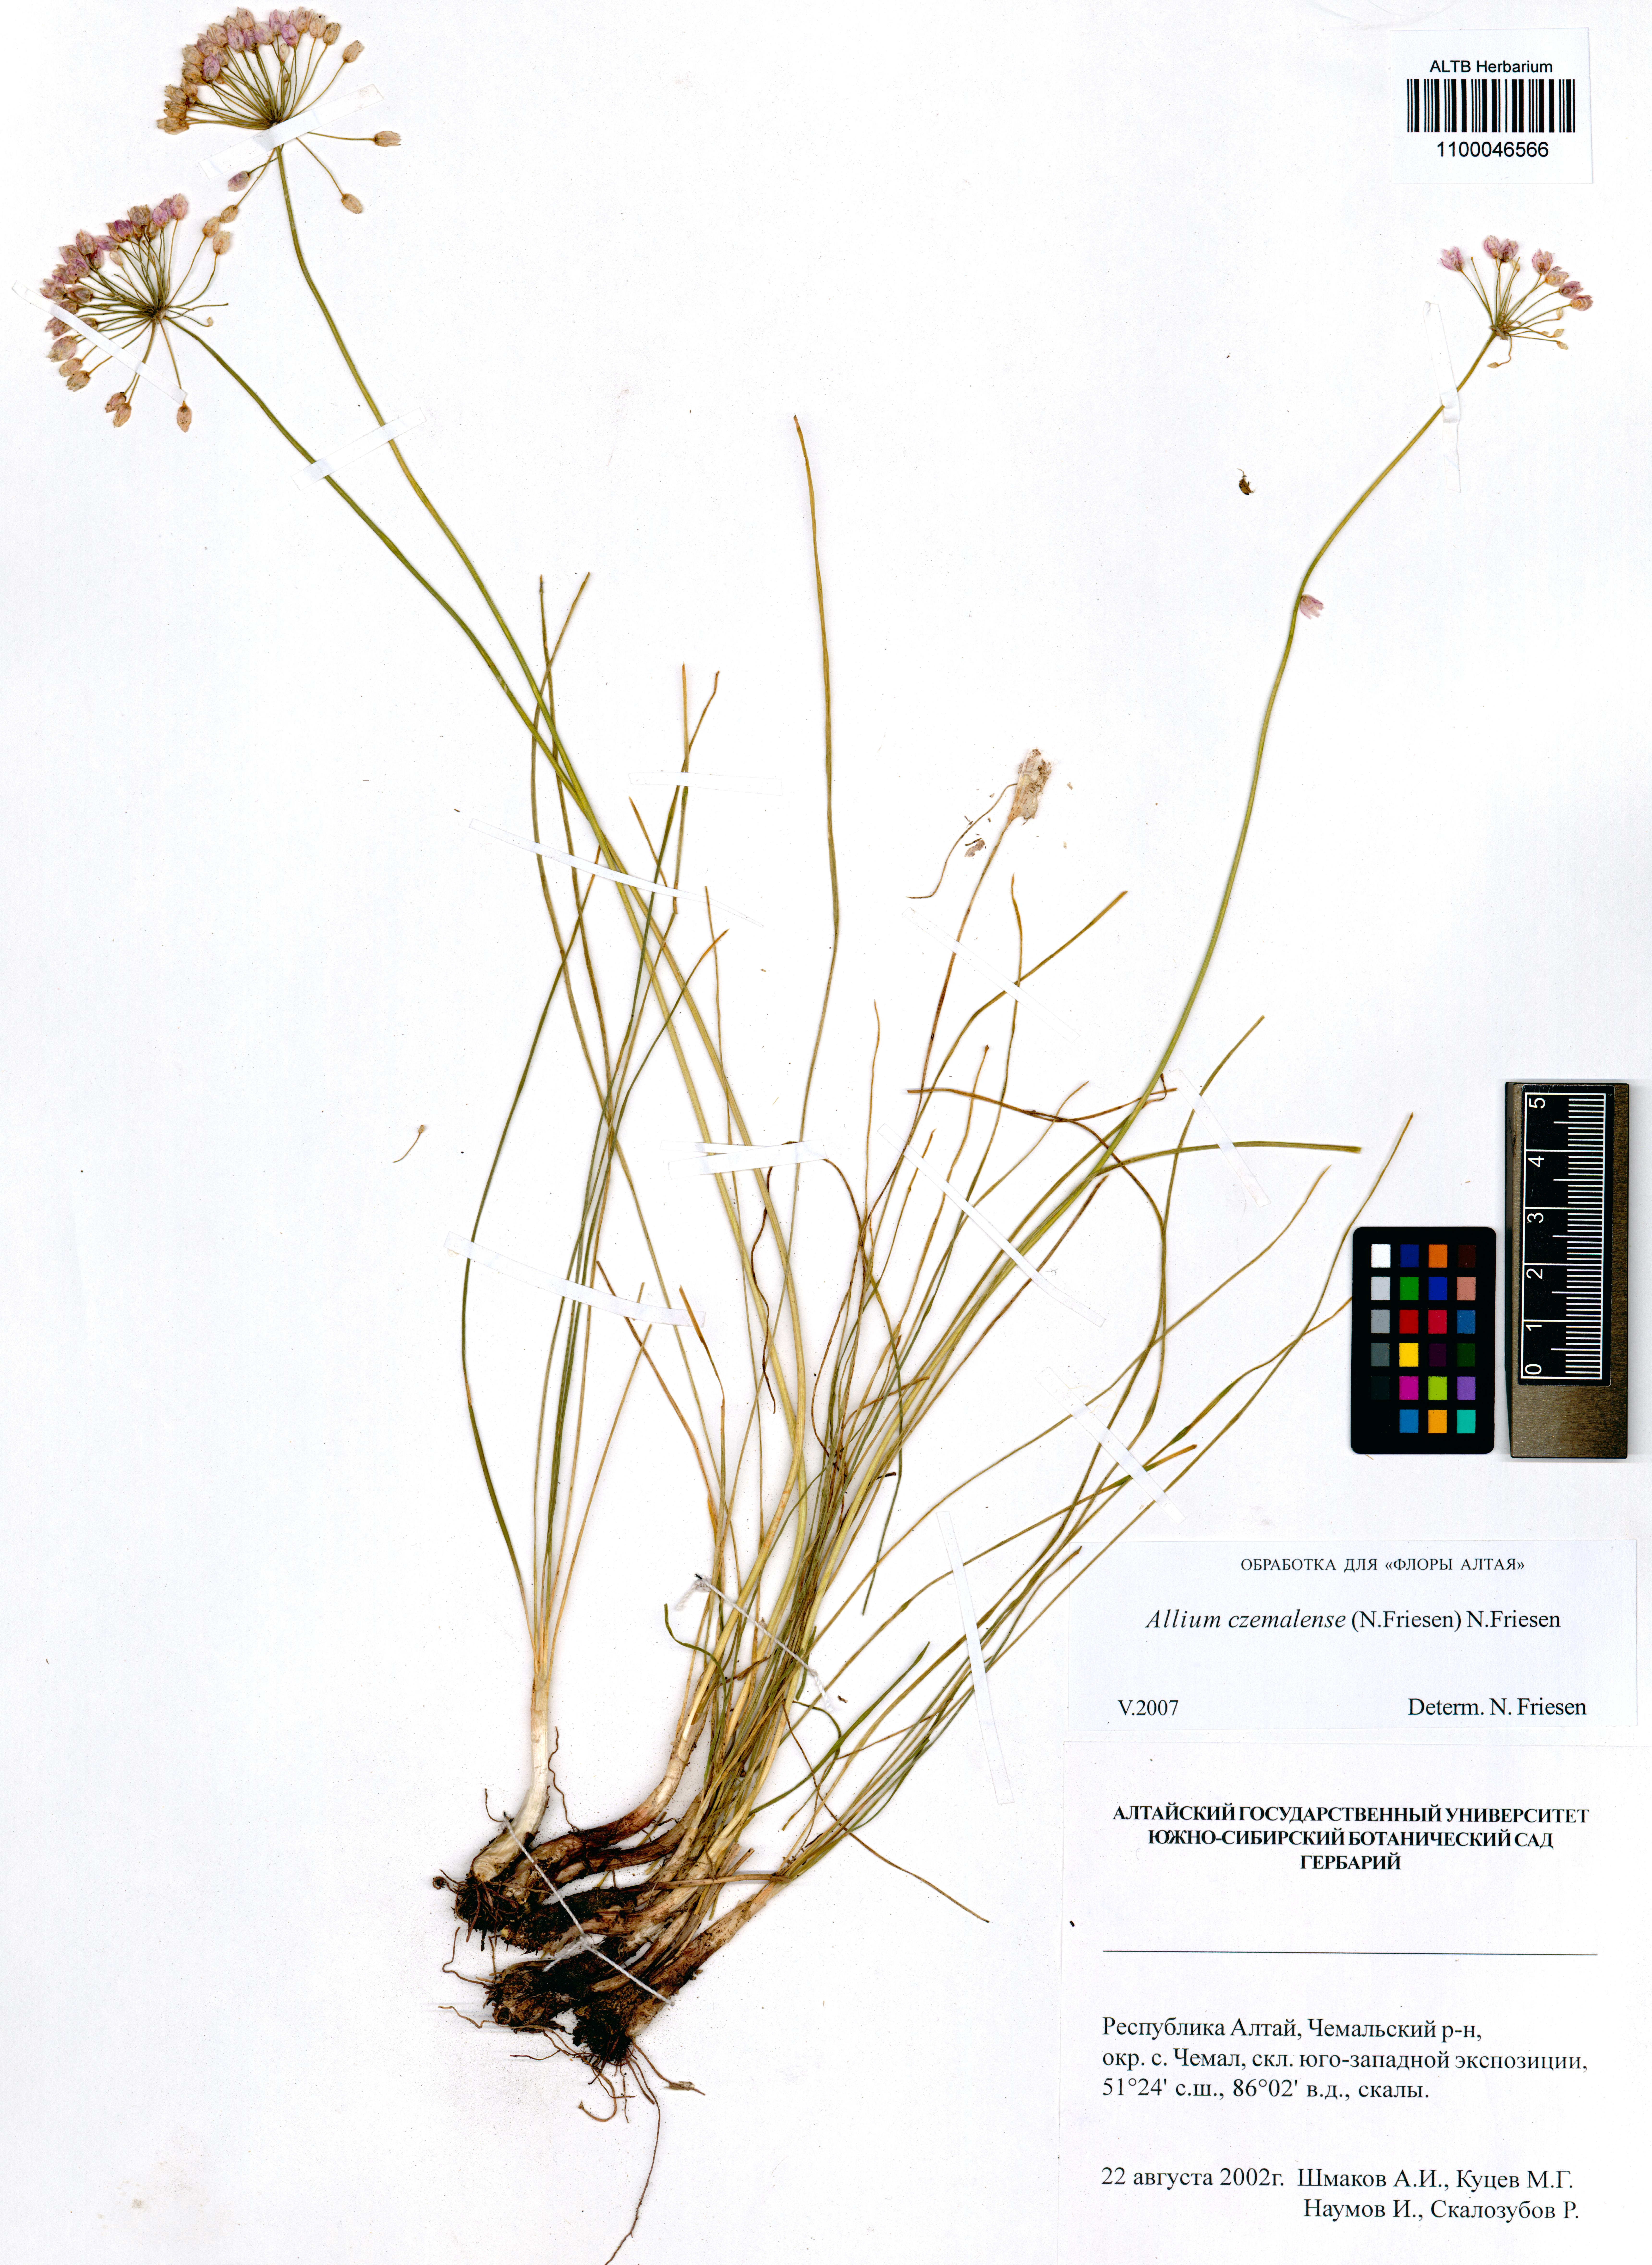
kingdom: Plantae
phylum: Tracheophyta
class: Liliopsida
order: Asparagales
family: Amaryllidaceae
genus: Allium
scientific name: Allium
